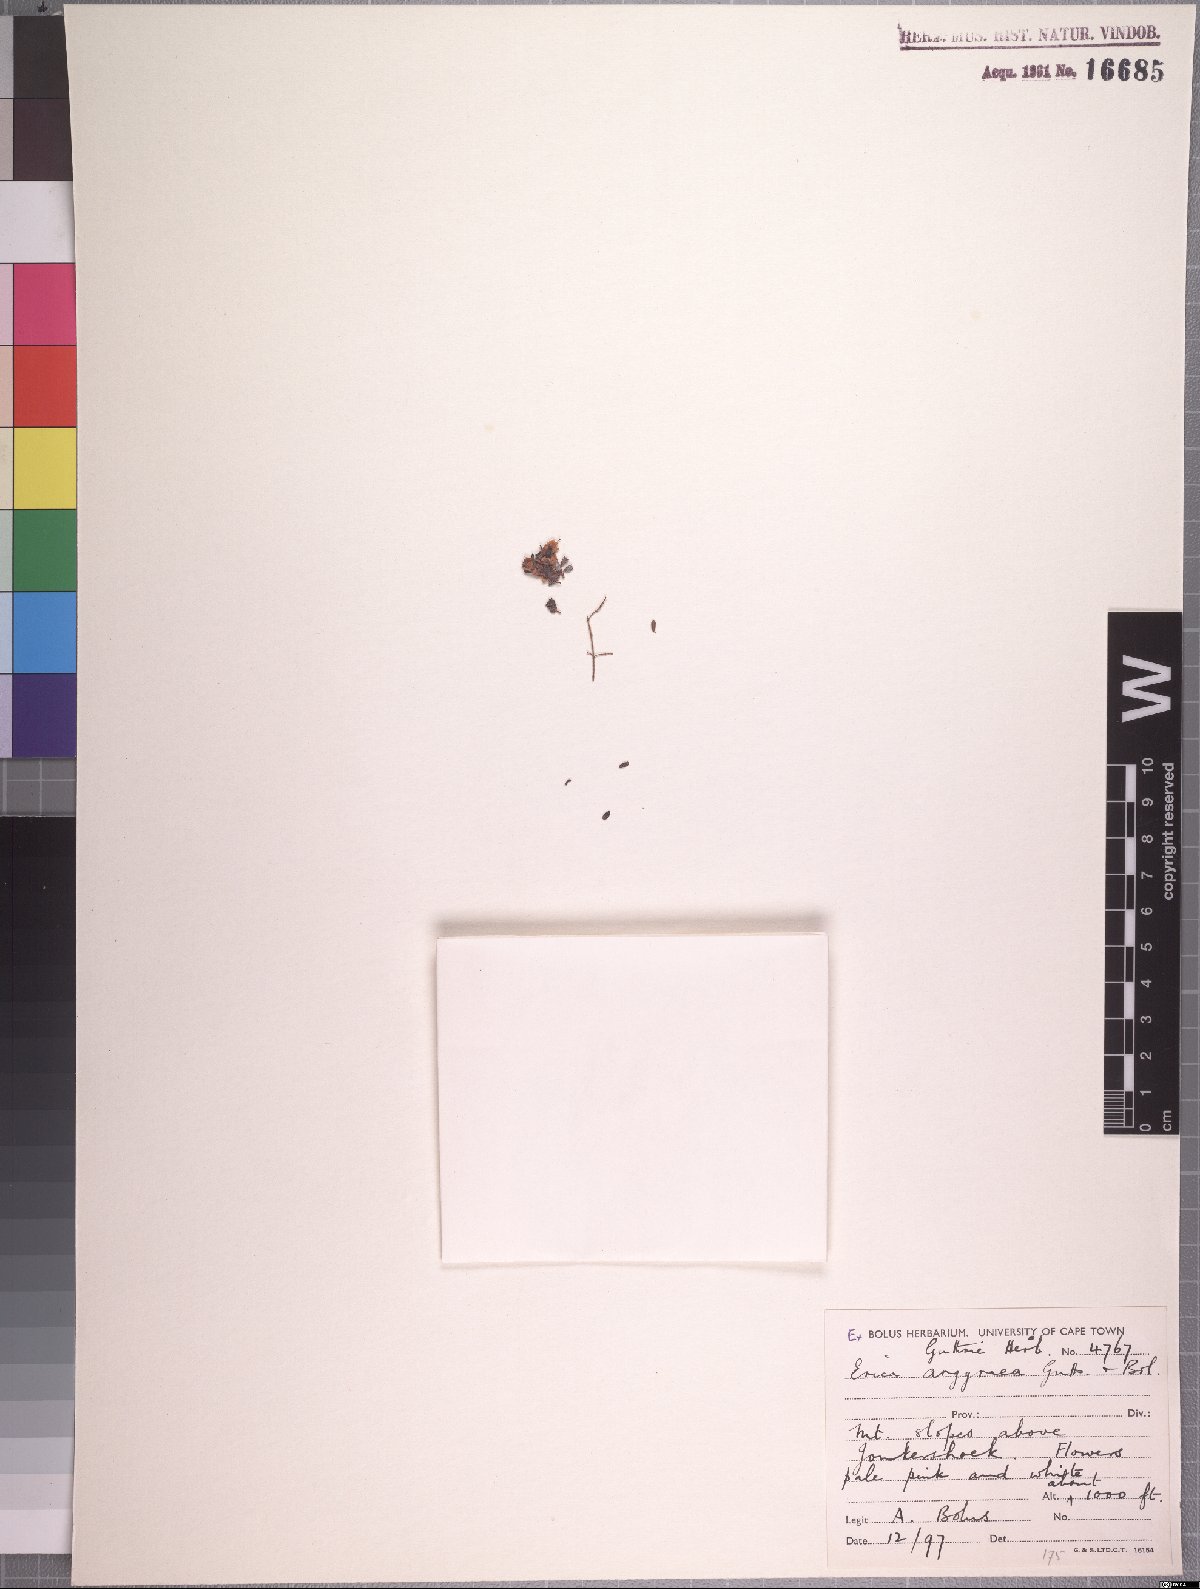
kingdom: Plantae
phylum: Tracheophyta
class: Magnoliopsida
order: Ericales
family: Ericaceae
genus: Erica
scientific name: Erica argyraea
